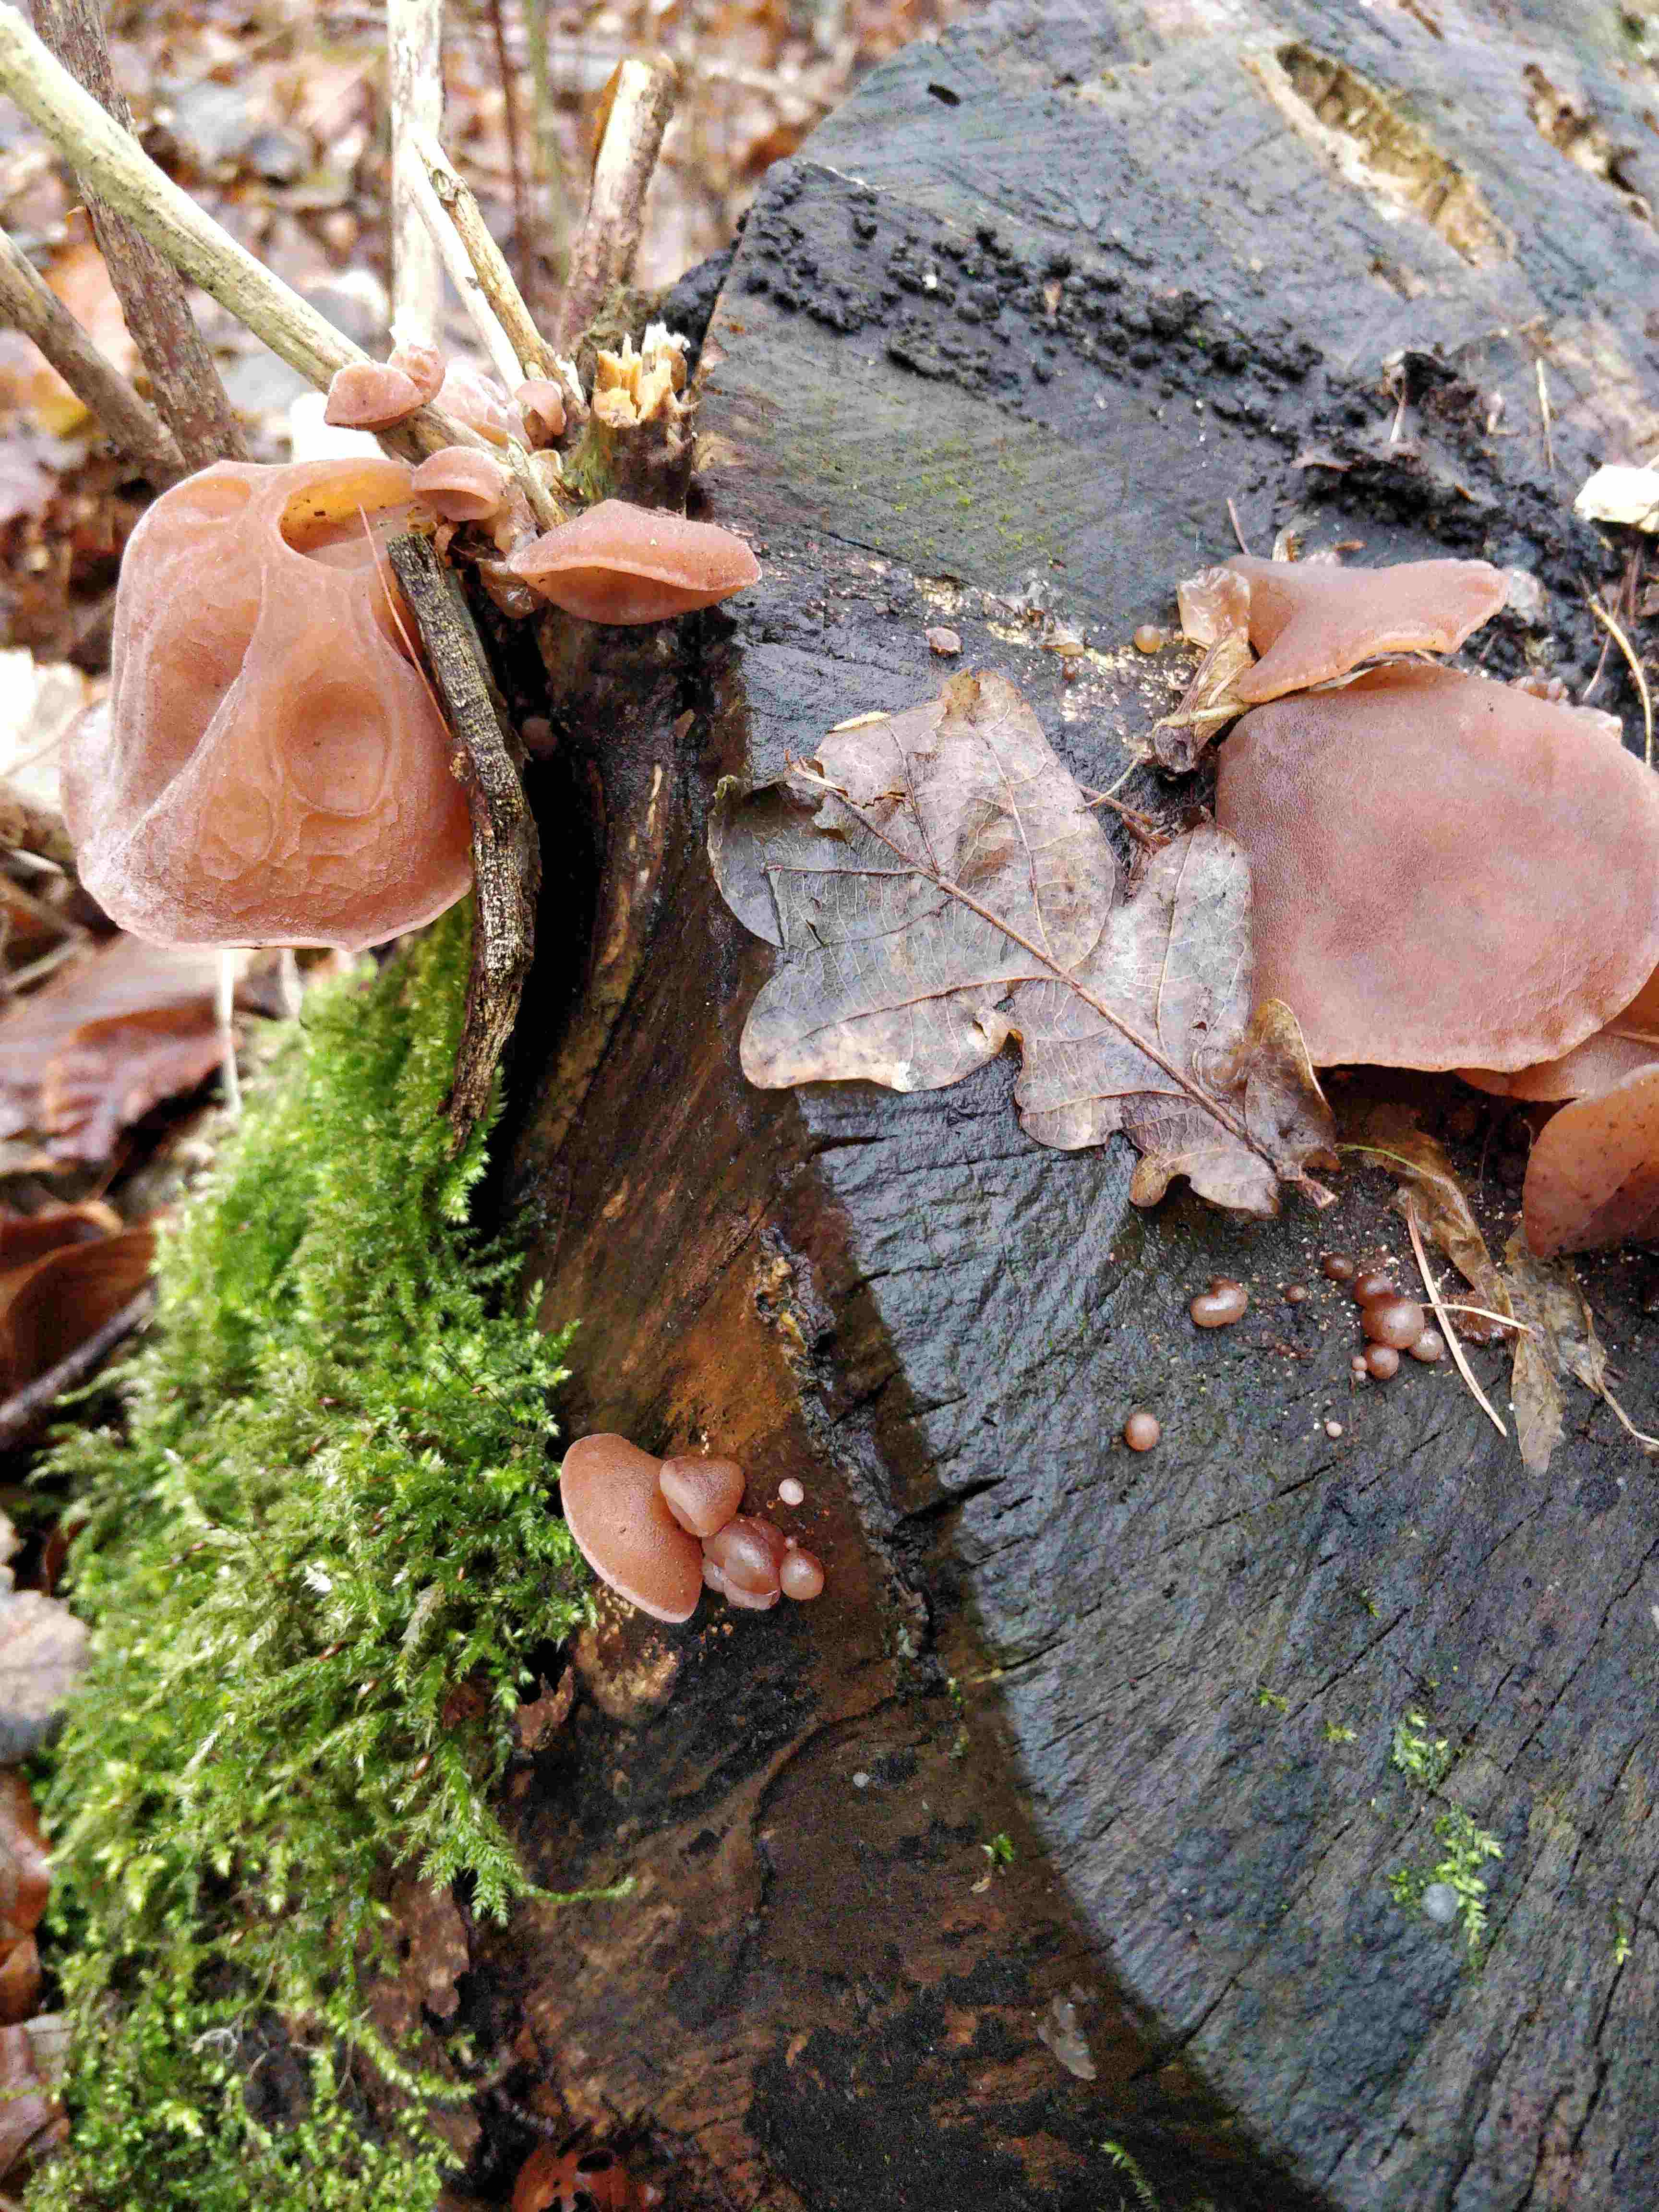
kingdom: Fungi
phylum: Basidiomycota
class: Agaricomycetes
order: Auriculariales
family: Auriculariaceae
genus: Auricularia
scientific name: Auricularia auricula-judae
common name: almindelig judasøre
